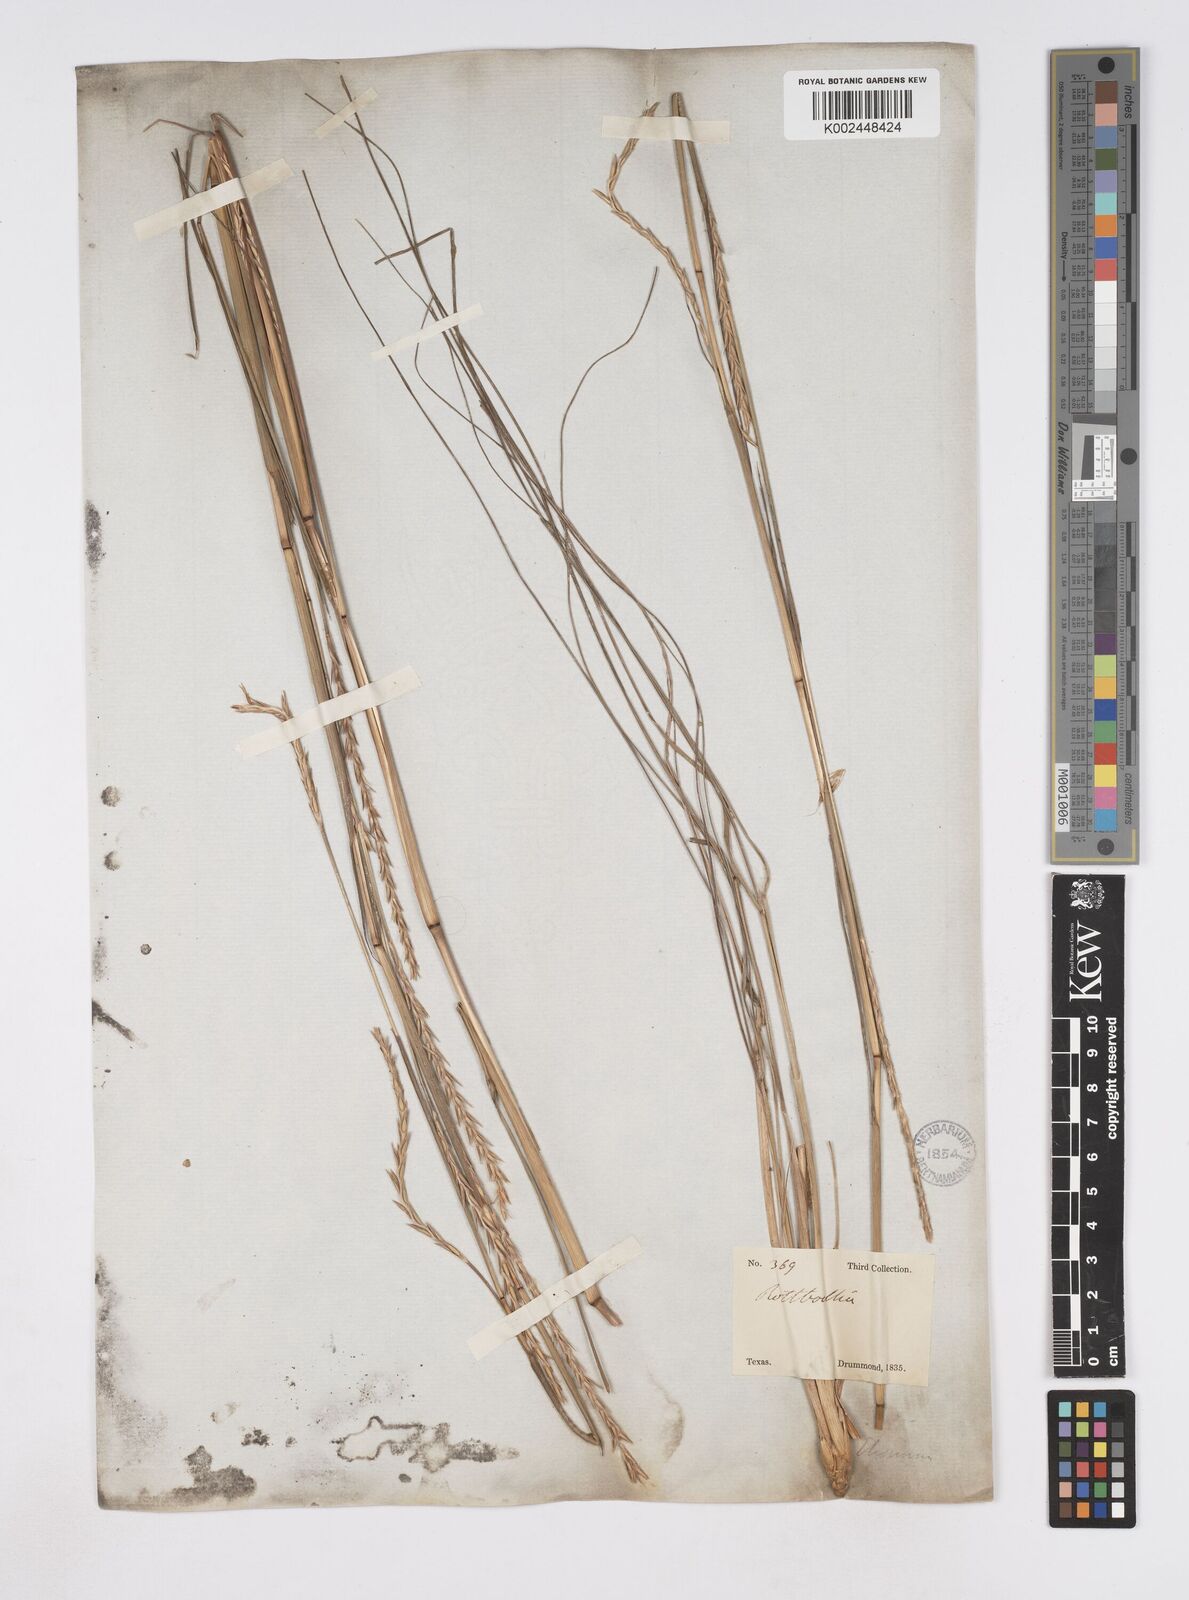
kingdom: Plantae
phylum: Tracheophyta
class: Liliopsida
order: Poales
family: Poaceae
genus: Elionurus
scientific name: Elionurus tripsacoides
